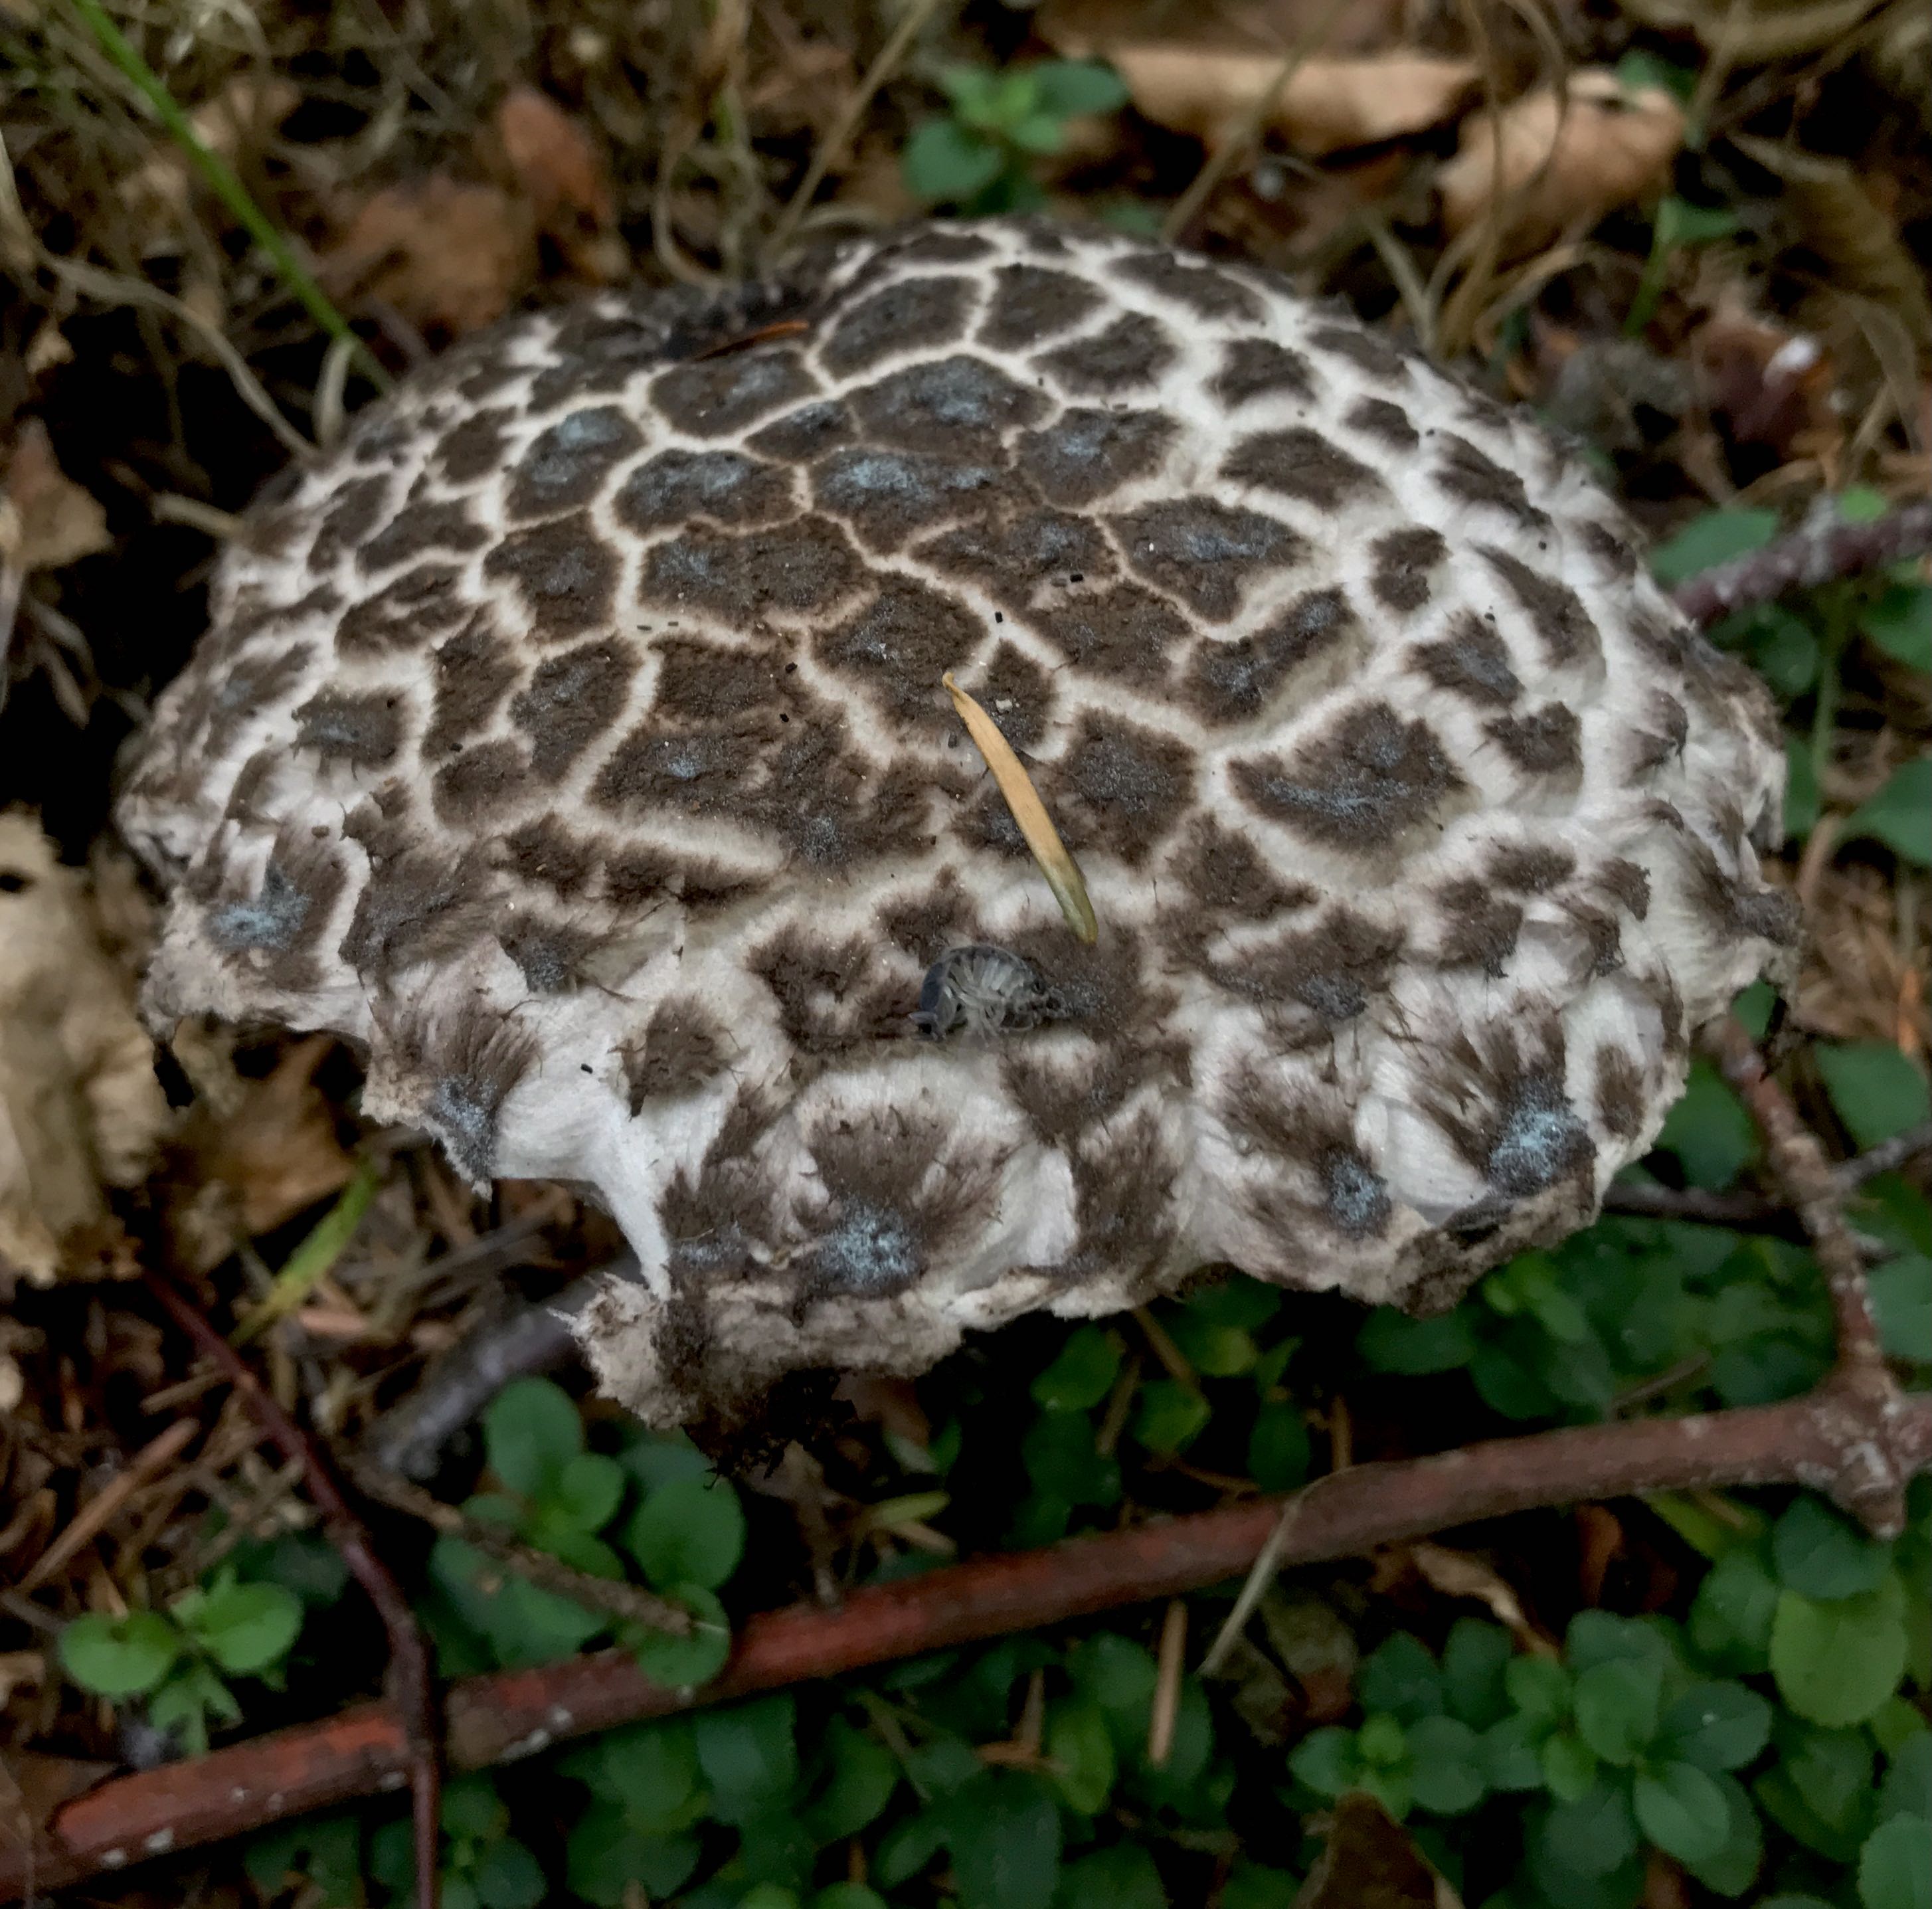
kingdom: Fungi
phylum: Basidiomycota
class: Agaricomycetes
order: Boletales
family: Boletaceae
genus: Strobilomyces
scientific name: Strobilomyces strobilaceus
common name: koglerørhat
